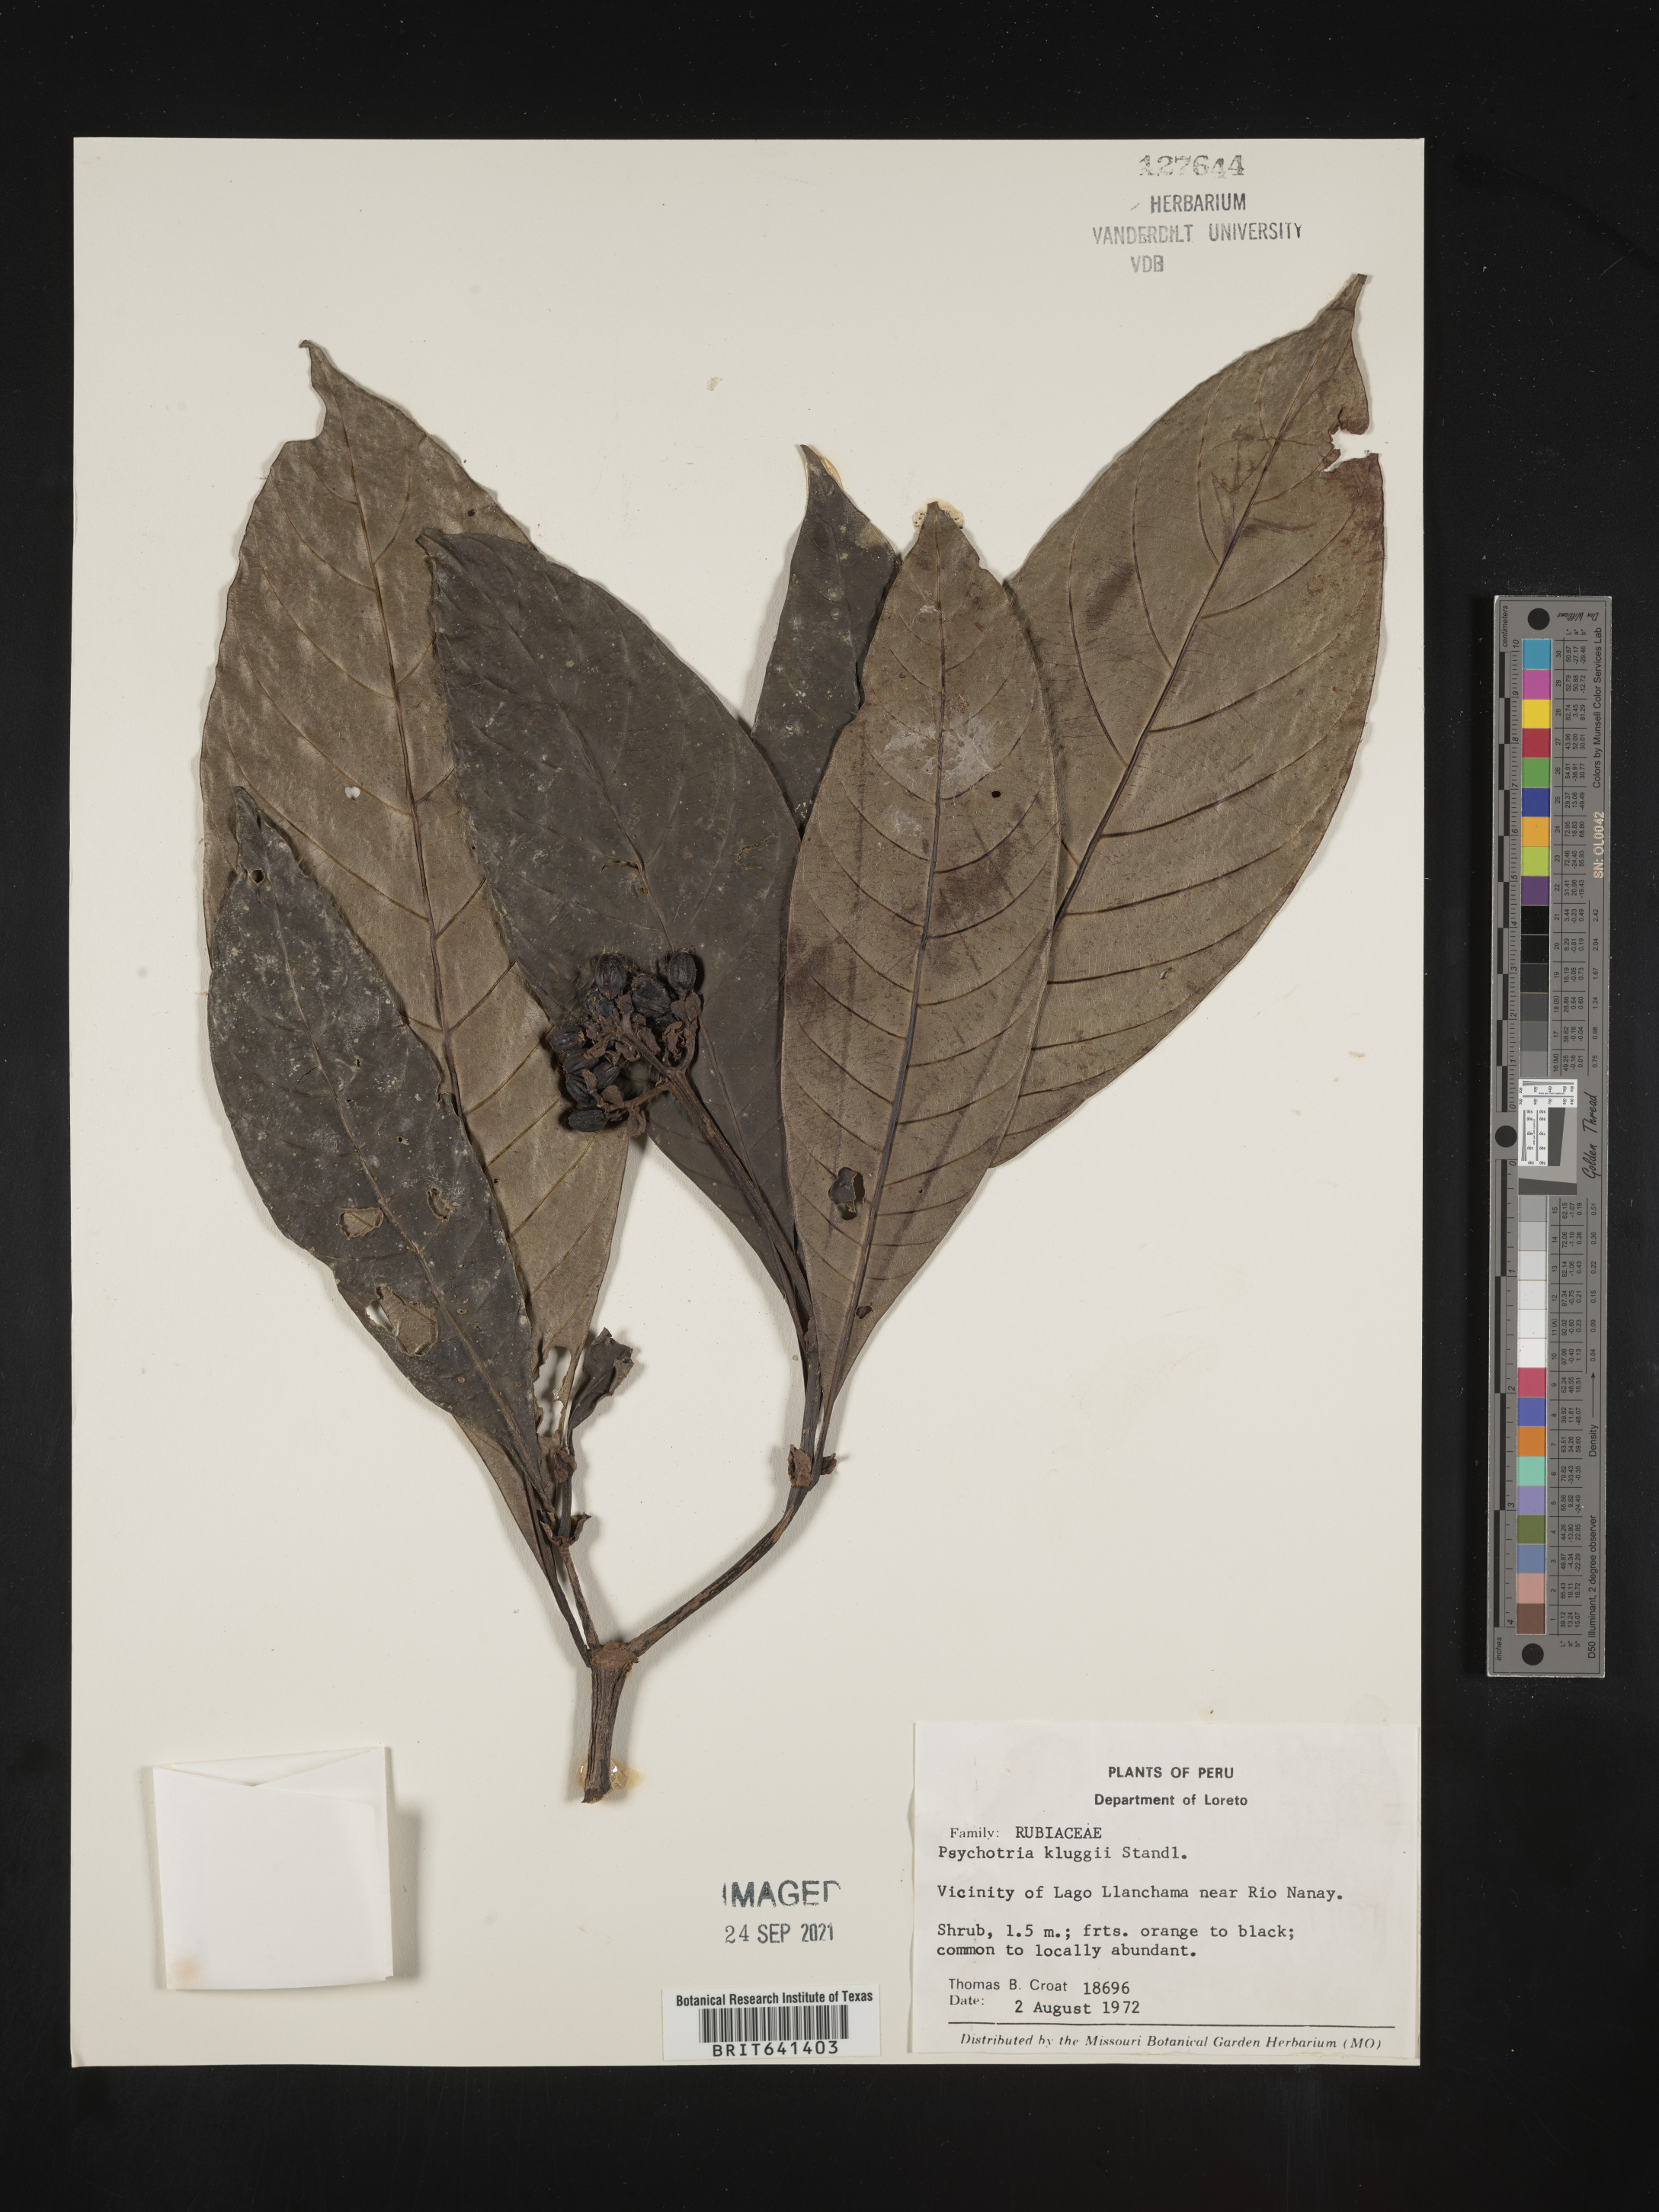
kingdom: Plantae
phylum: Tracheophyta
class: Magnoliopsida
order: Gentianales
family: Rubiaceae
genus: Psychotria
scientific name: Psychotria
